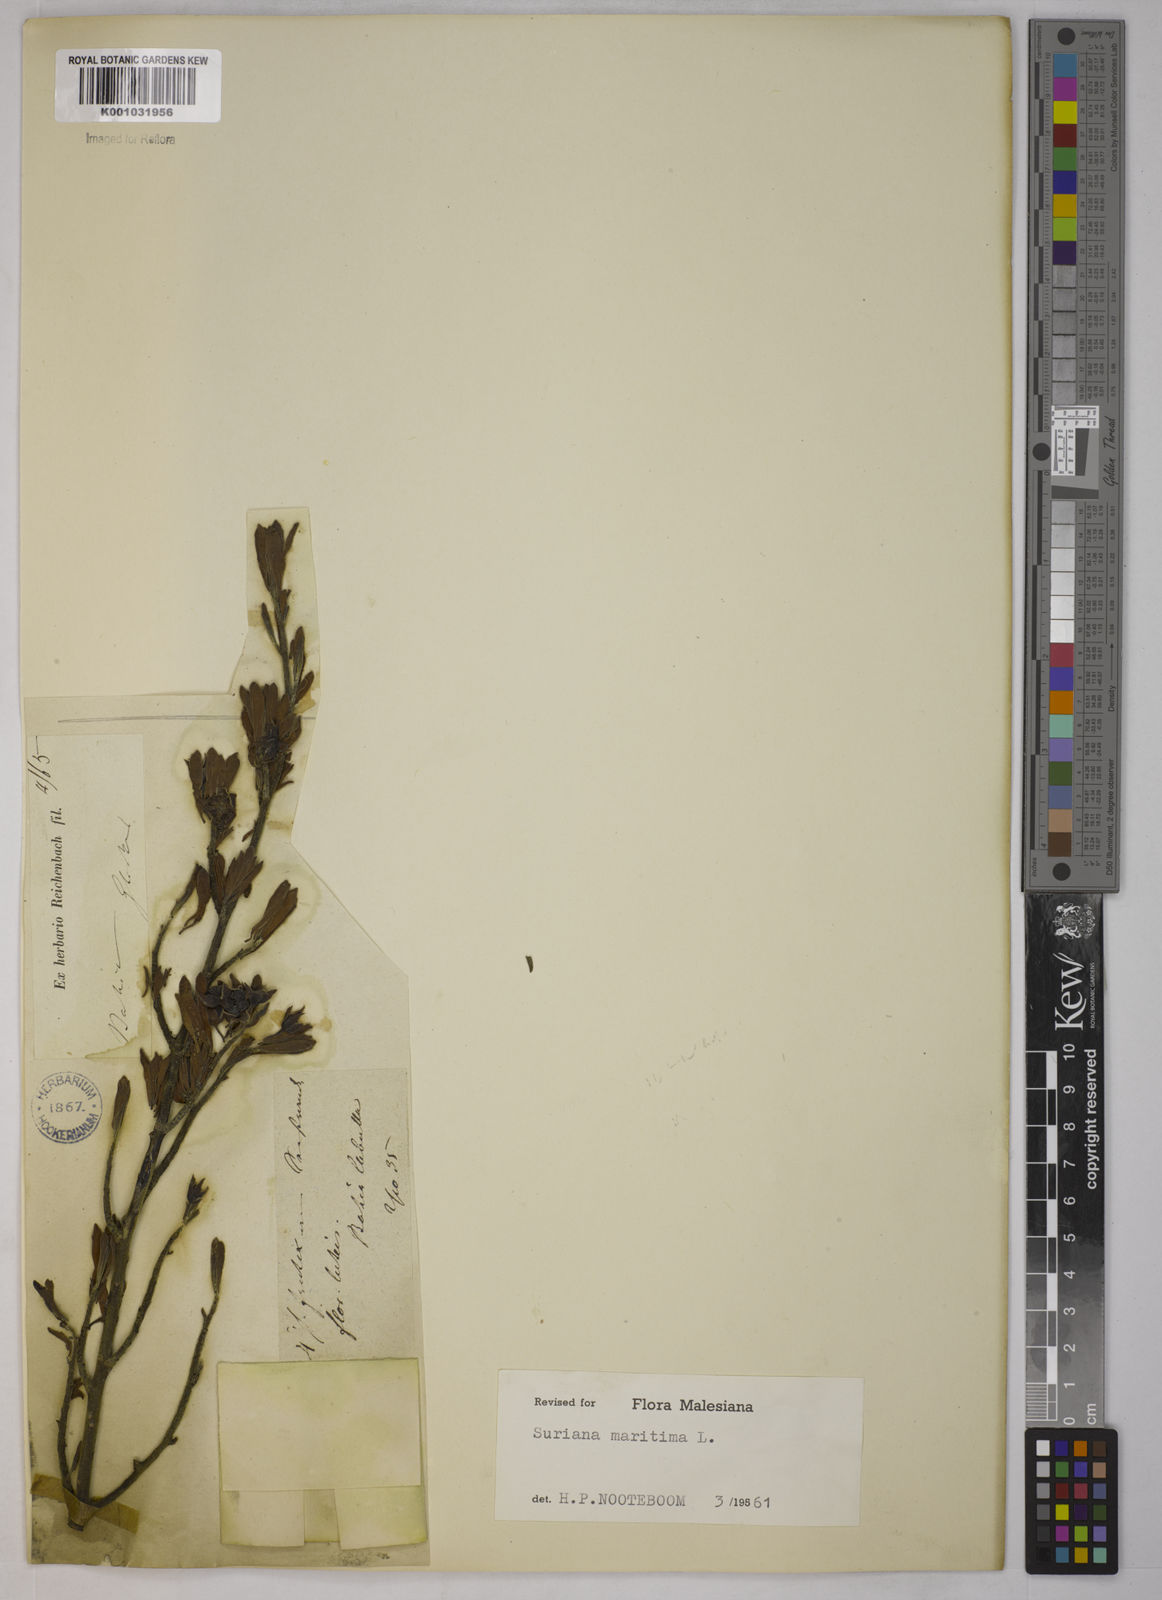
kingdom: Plantae
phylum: Tracheophyta
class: Magnoliopsida
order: Fabales
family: Surianaceae
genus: Suriana
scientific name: Suriana maritima
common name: Bay-cedar
